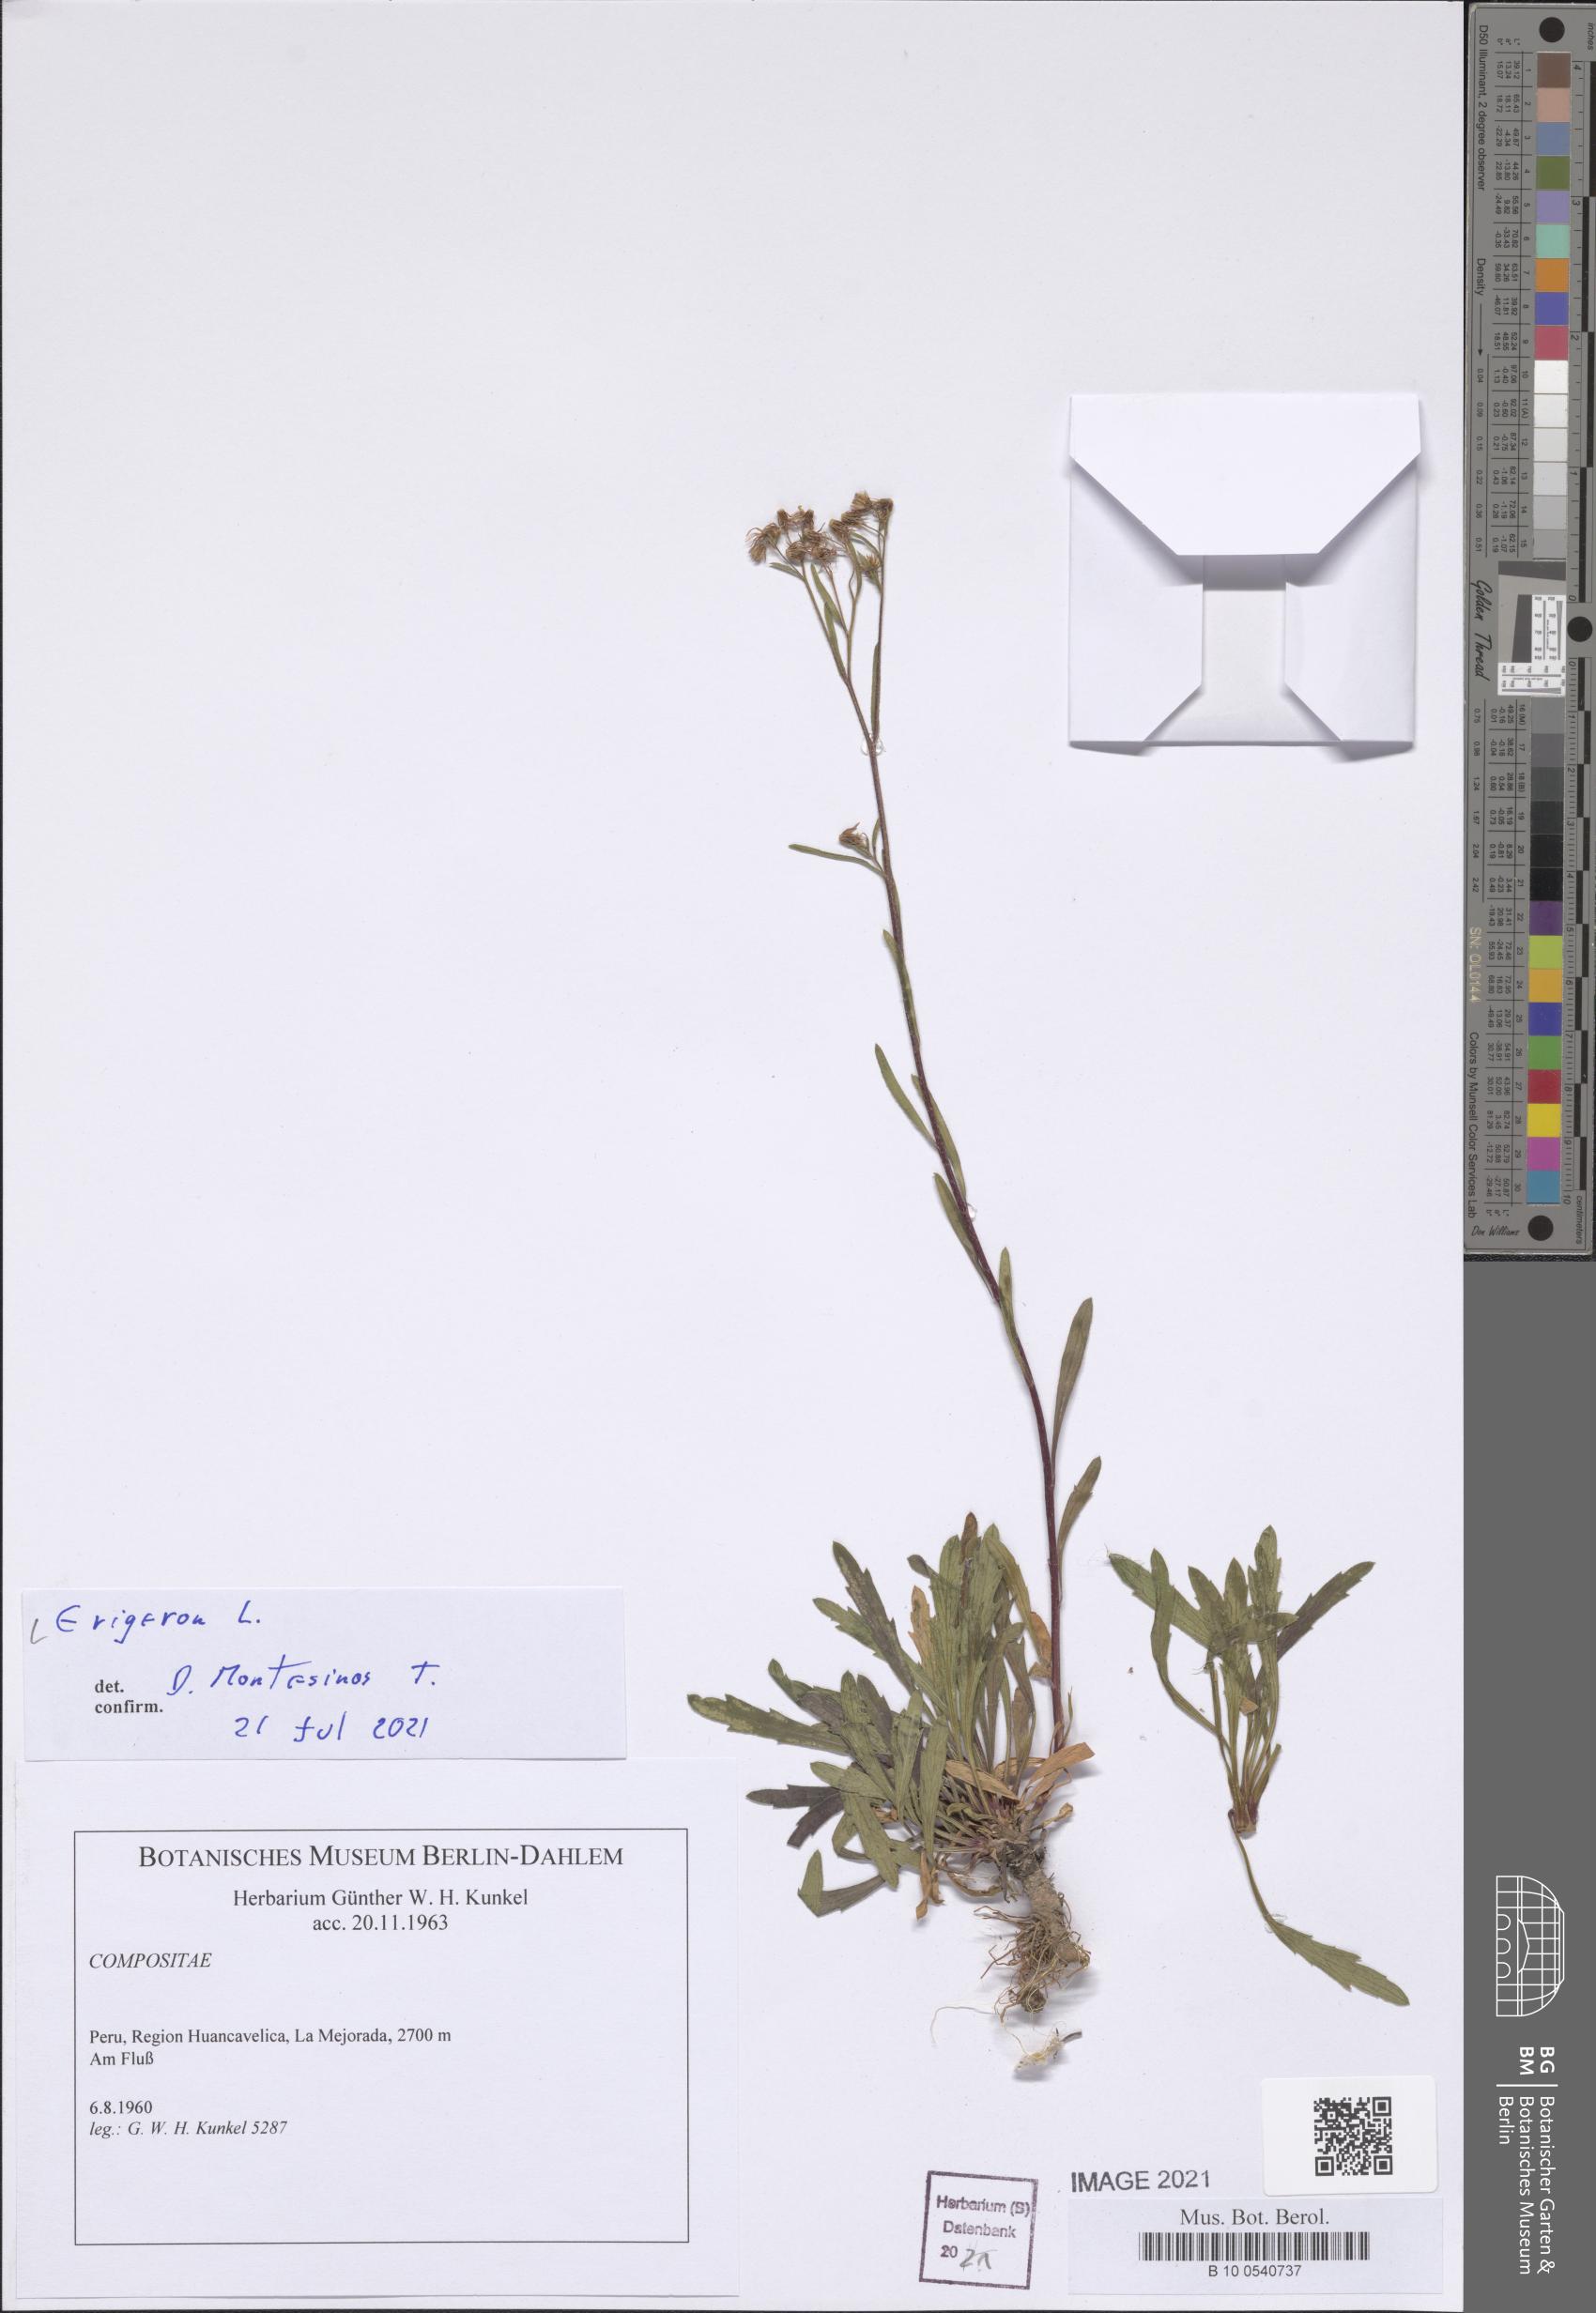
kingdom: Plantae
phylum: Tracheophyta
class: Magnoliopsida
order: Asterales
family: Asteraceae
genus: Erigeron
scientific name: Erigeron
